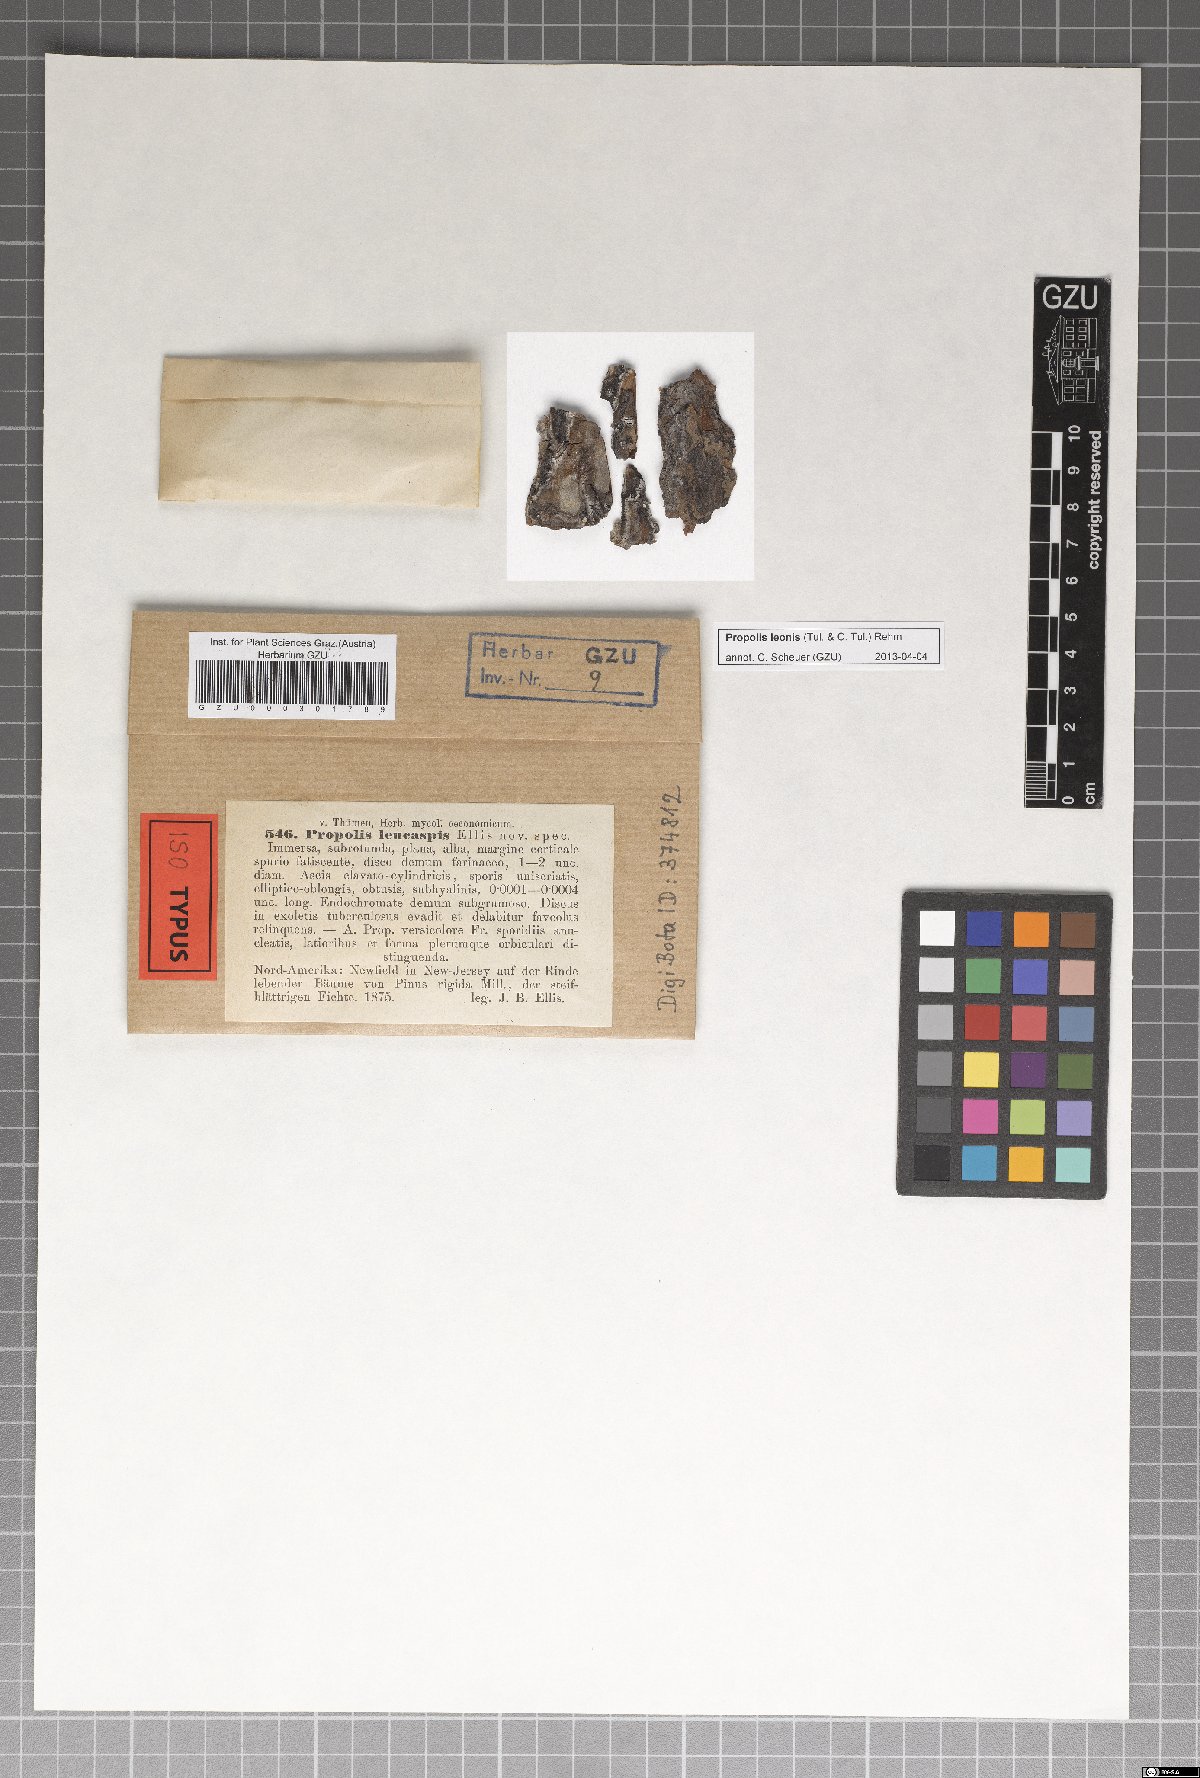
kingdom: Fungi
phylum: Ascomycota
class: Leotiomycetes
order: Chaetomellales
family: Marthamycetaceae
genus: Propolis
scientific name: Propolis leonis
